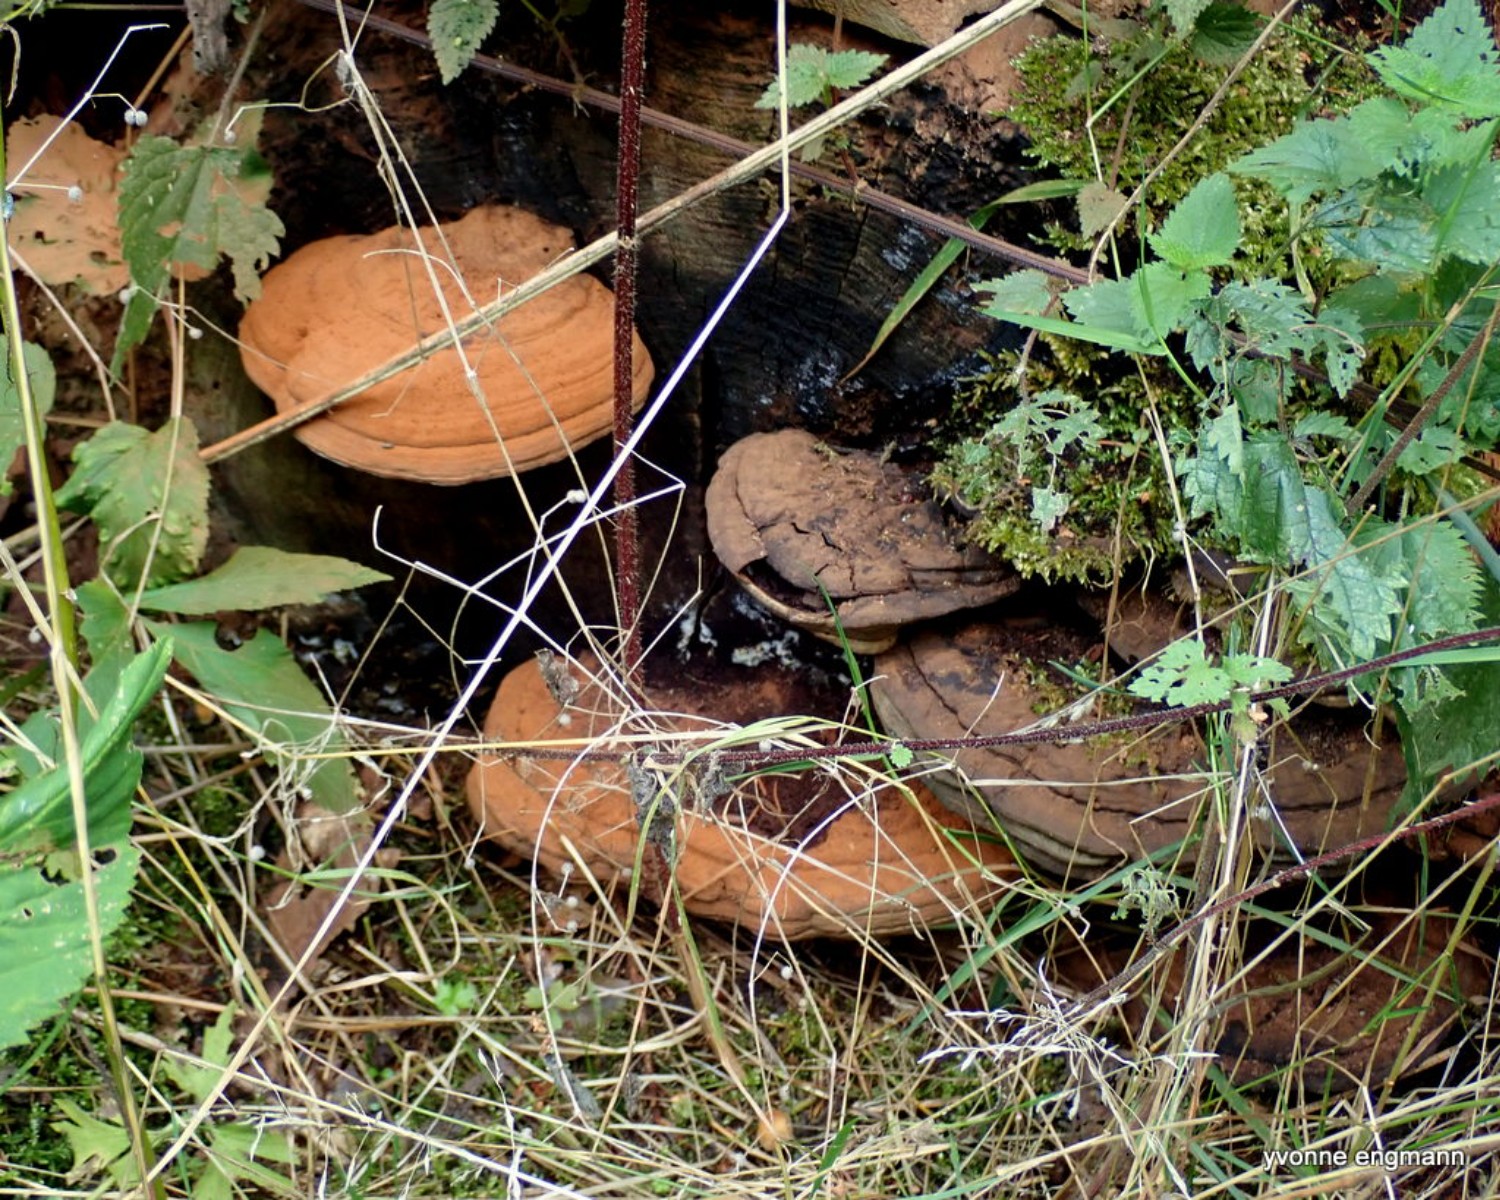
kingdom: Fungi
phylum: Basidiomycota
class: Agaricomycetes
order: Polyporales
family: Polyporaceae
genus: Ganoderma
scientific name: Ganoderma applanatum
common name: flad lakporesvamp
